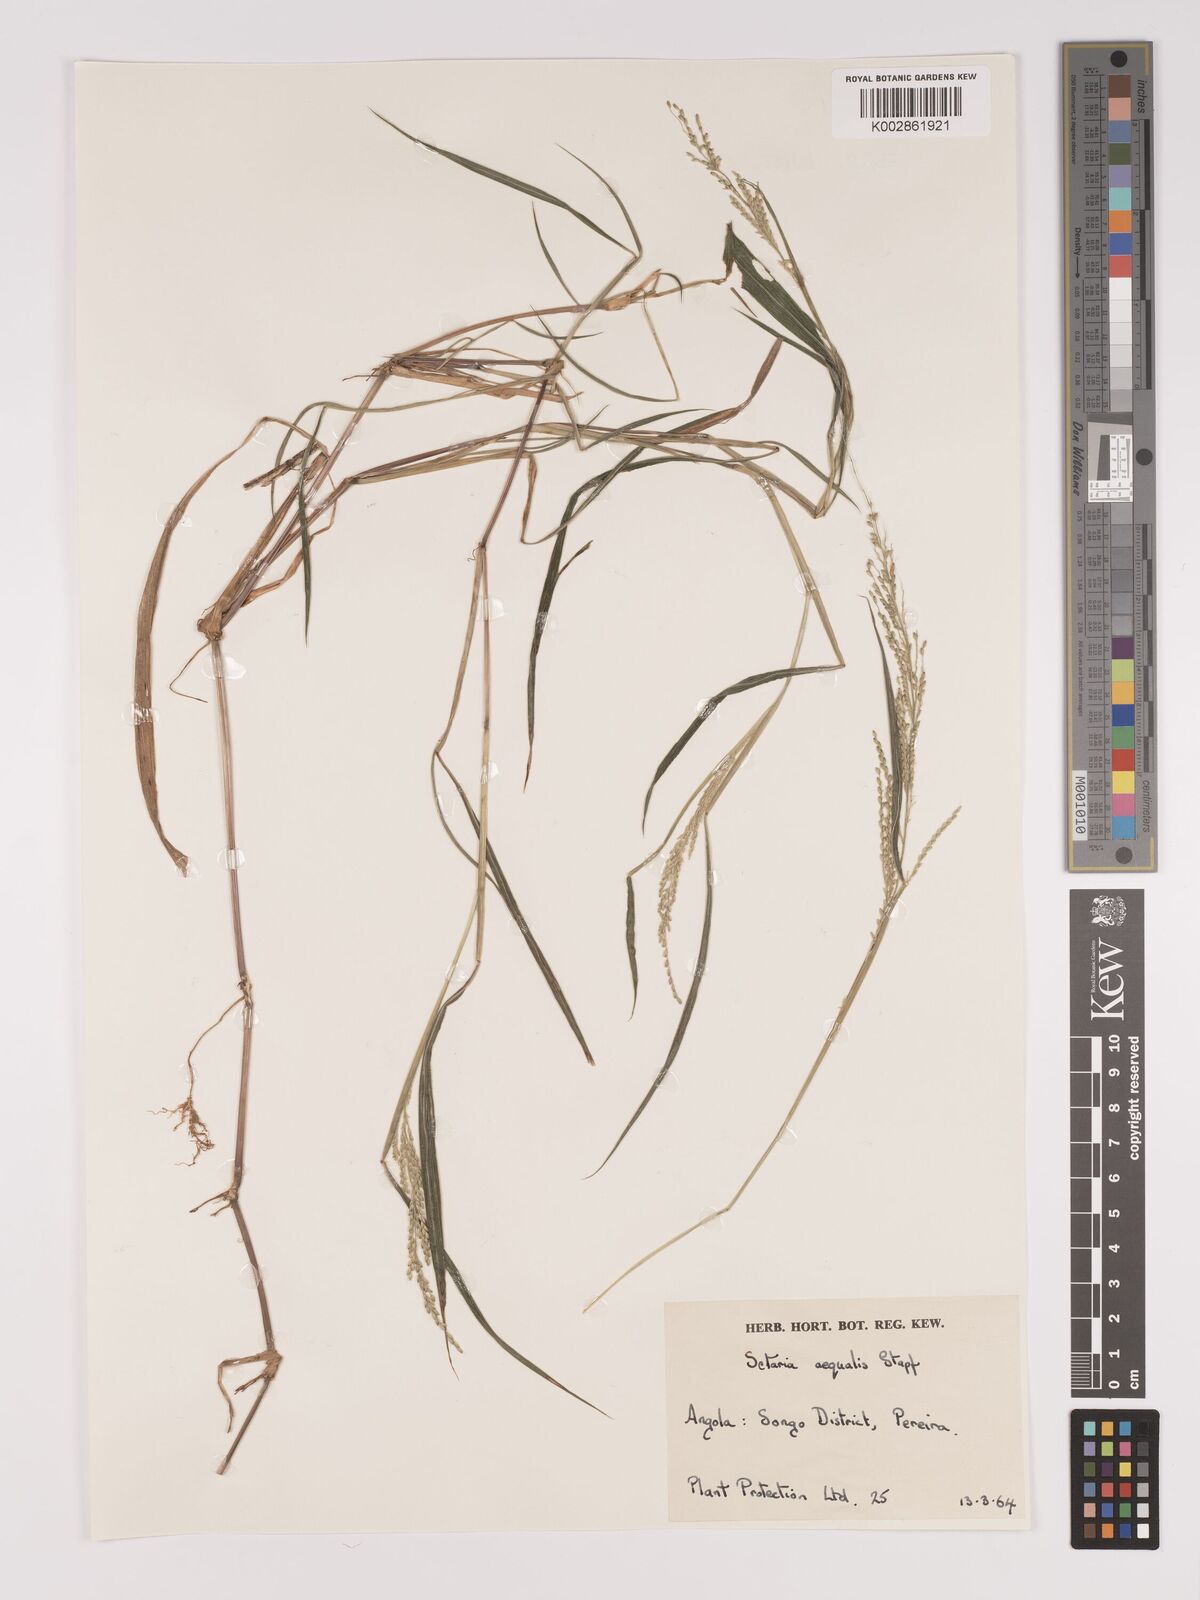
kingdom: Plantae
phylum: Tracheophyta
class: Liliopsida
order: Poales
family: Poaceae
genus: Setaria
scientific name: Setaria homonyma
